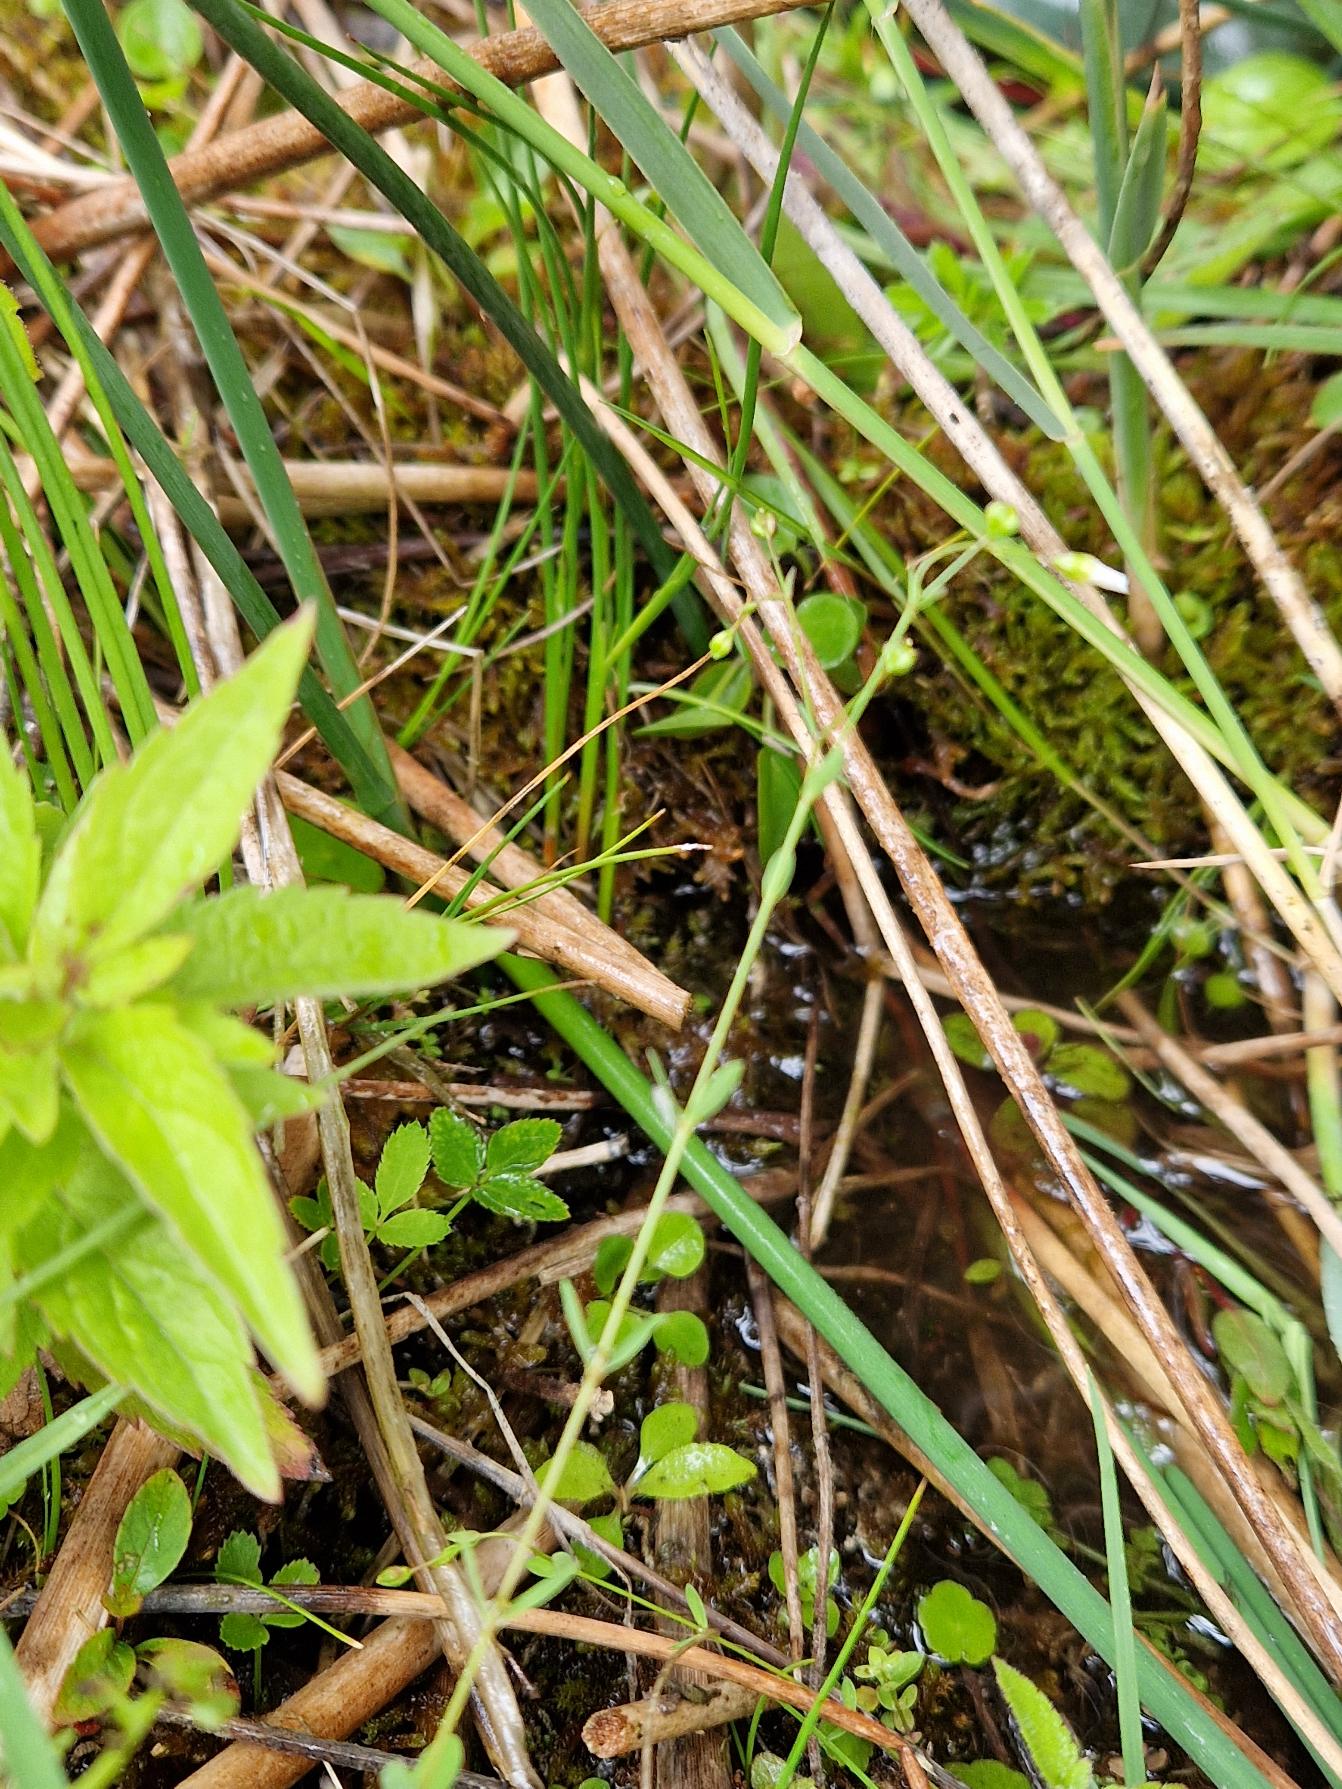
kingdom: Plantae
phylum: Tracheophyta
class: Magnoliopsida
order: Malpighiales
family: Linaceae
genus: Linum
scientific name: Linum catharticum
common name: Vild hør
